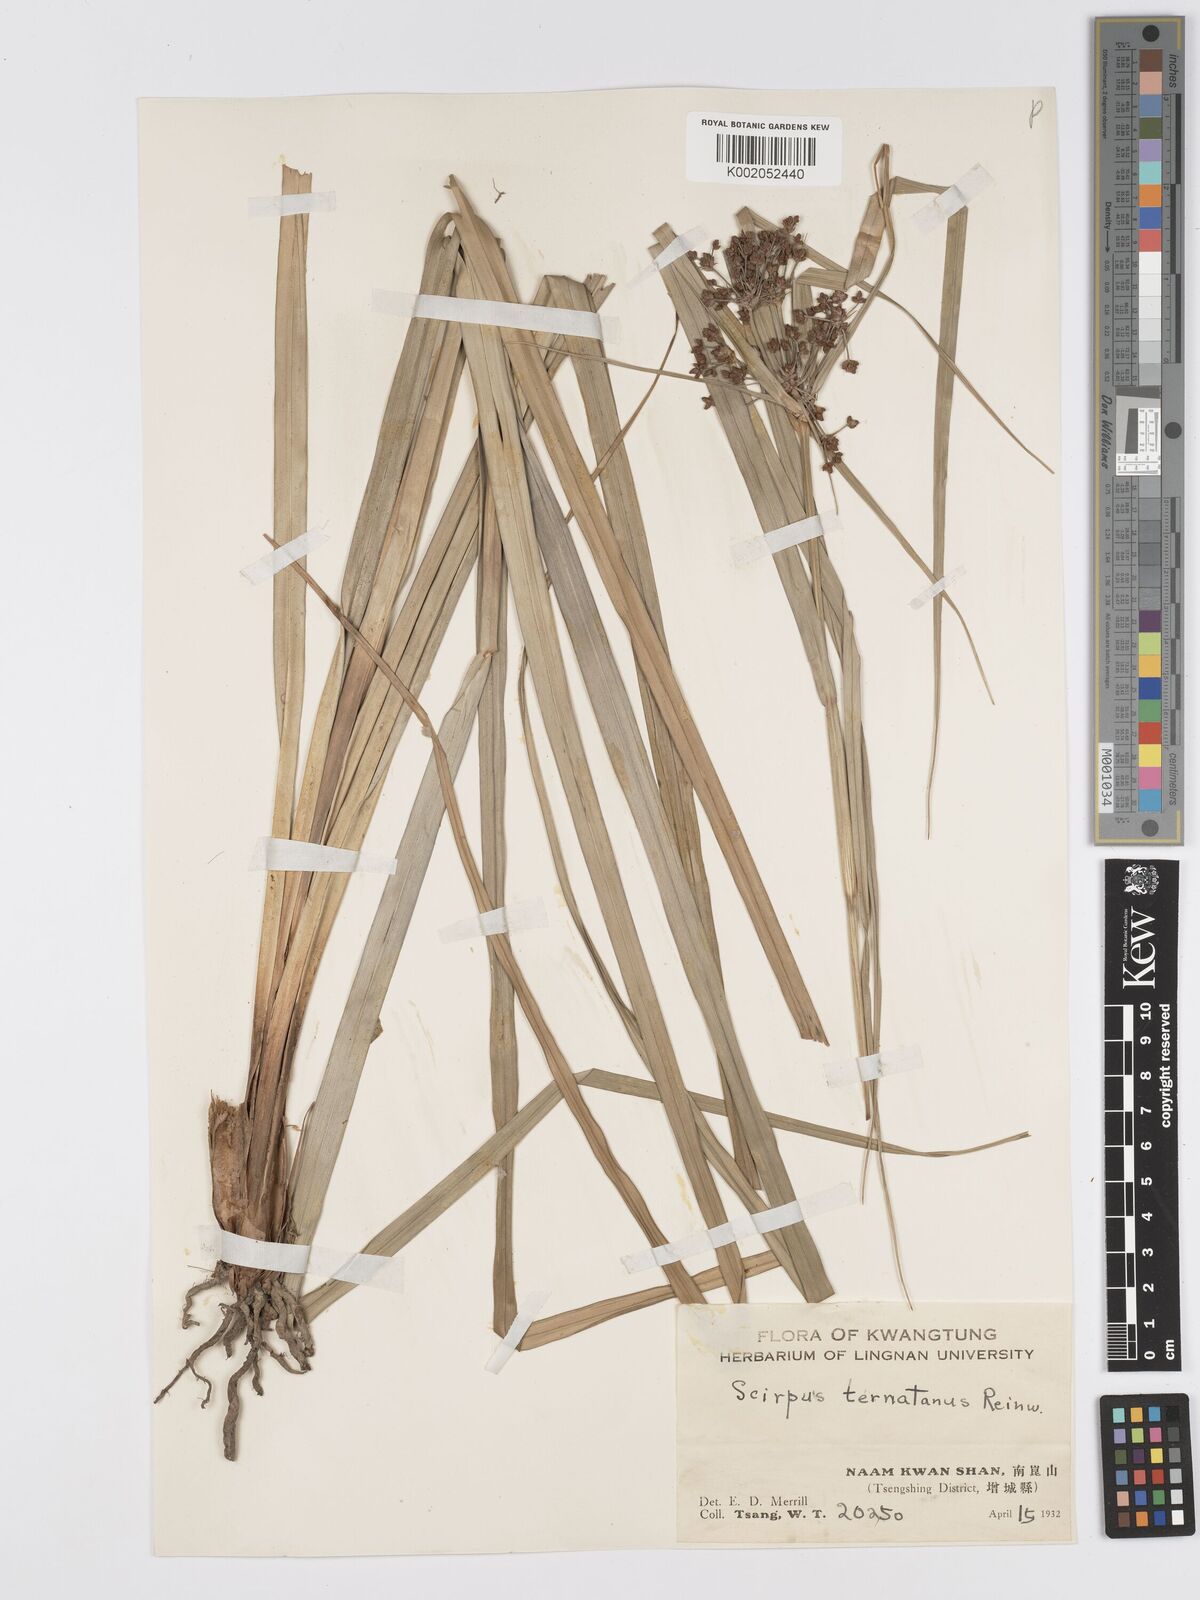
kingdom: Plantae
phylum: Tracheophyta
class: Liliopsida
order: Poales
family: Cyperaceae
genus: Scirpus
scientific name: Scirpus ternatanus
